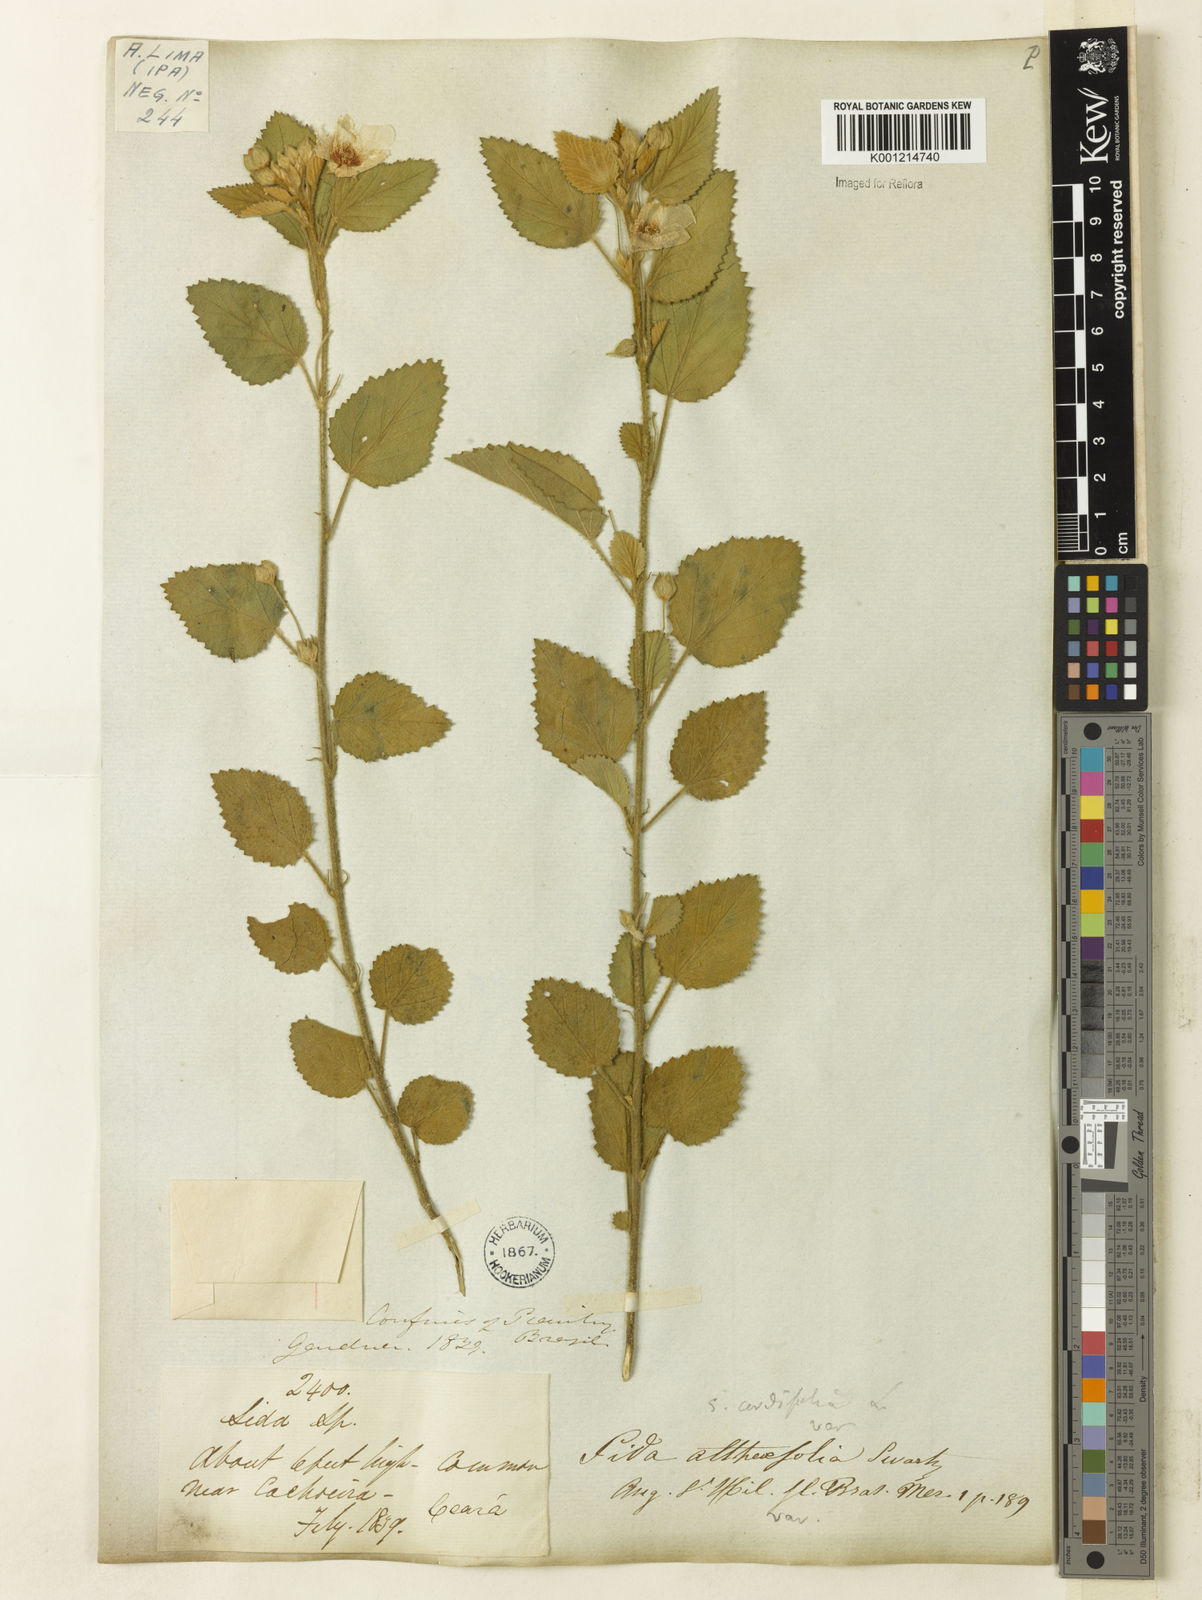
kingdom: Plantae
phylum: Tracheophyta
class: Magnoliopsida
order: Malvales
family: Malvaceae
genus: Sida
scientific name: Sida cordifolia
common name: Ilima
